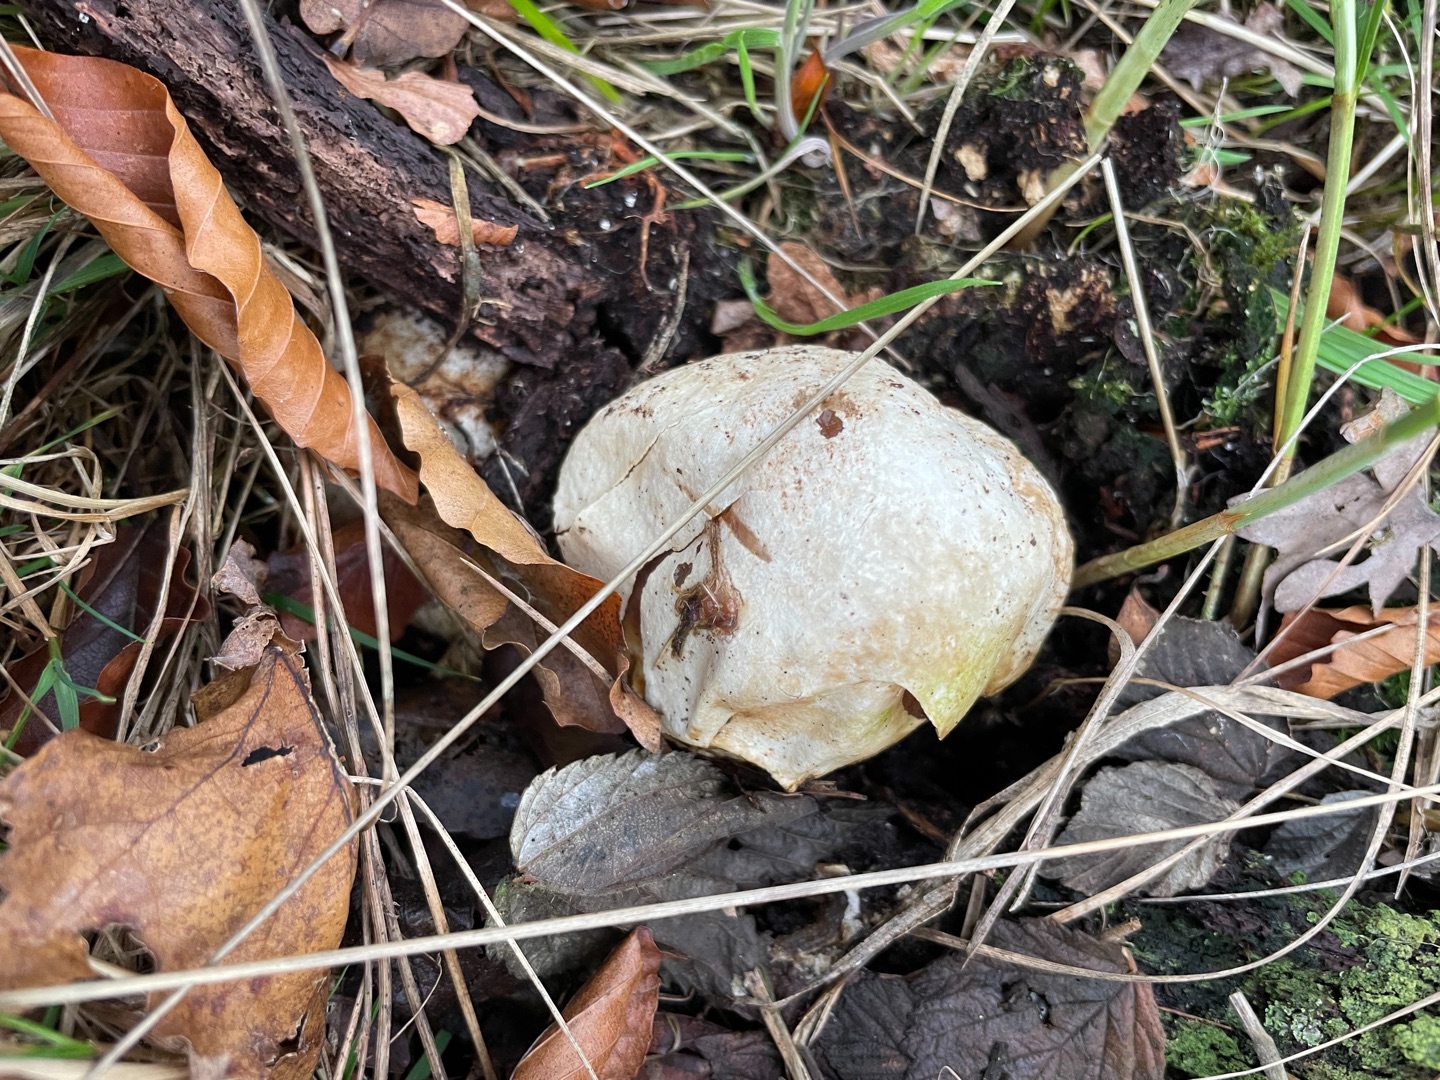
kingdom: Fungi
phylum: Basidiomycota
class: Agaricomycetes
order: Phallales
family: Phallaceae
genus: Phallus
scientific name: Phallus impudicus
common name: Almindelig stinksvamp
